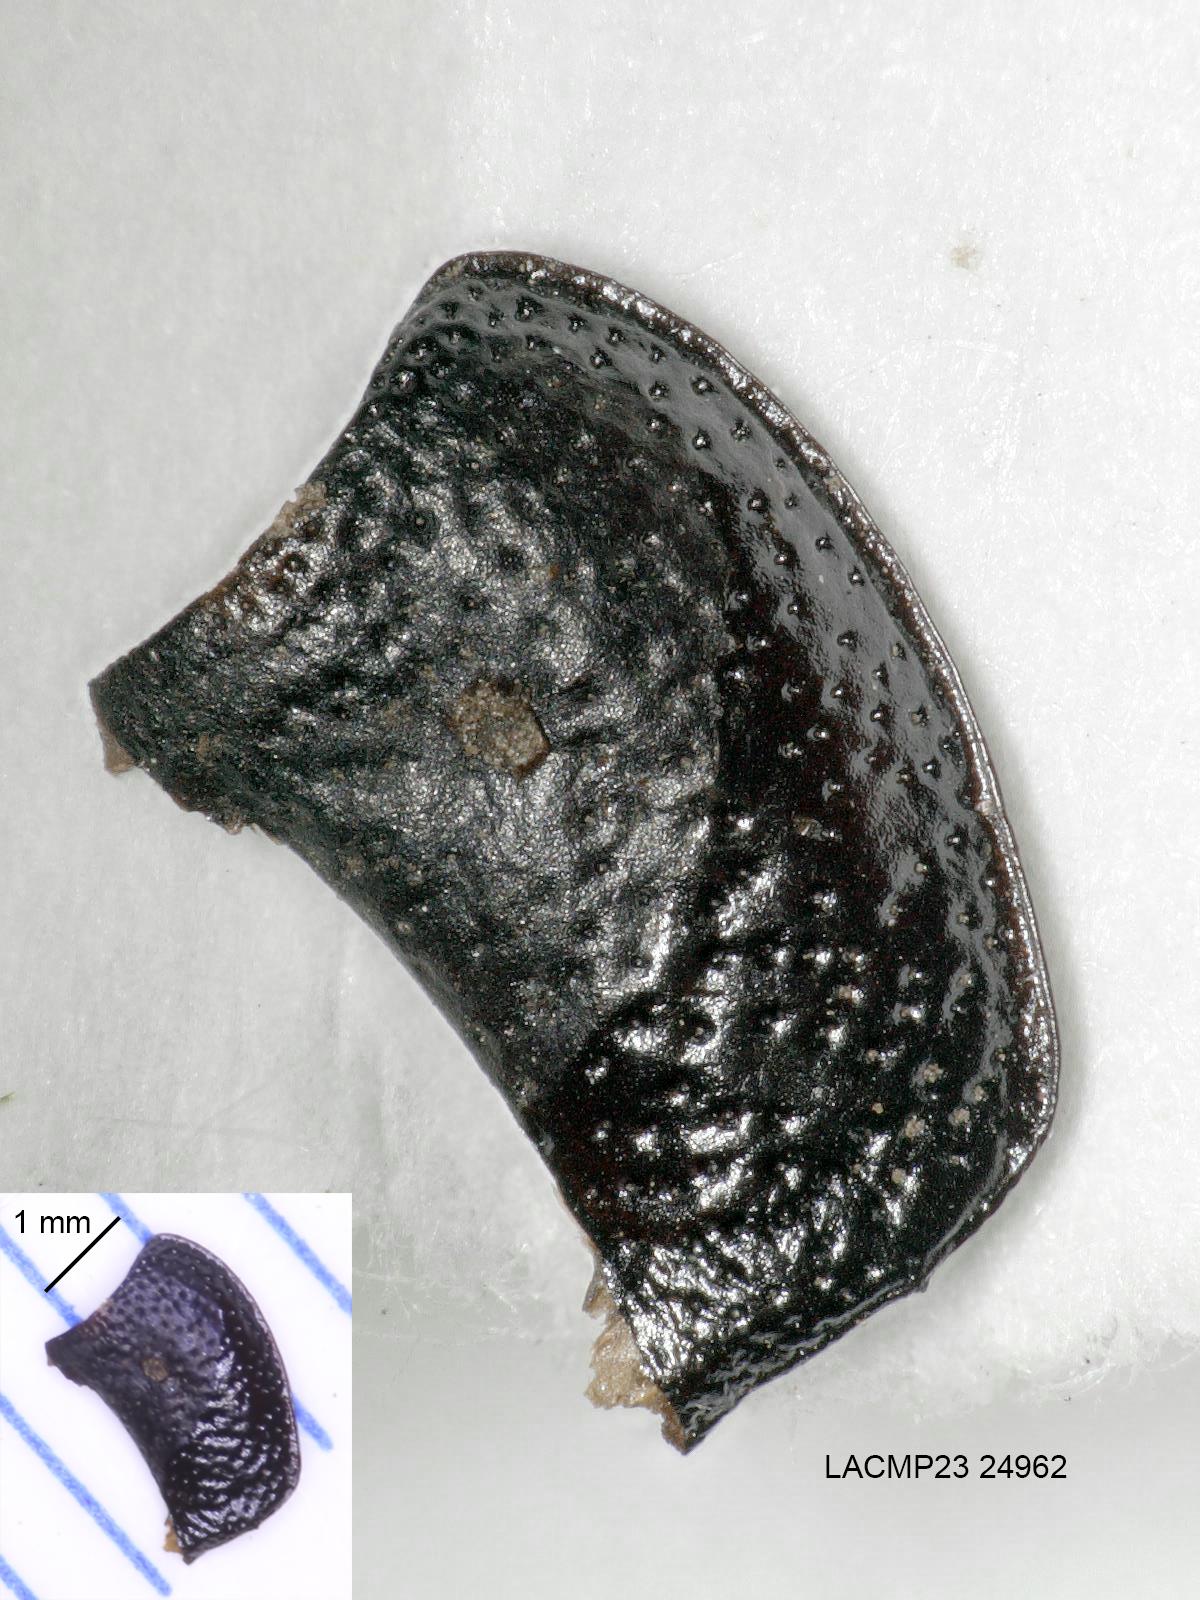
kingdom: Animalia
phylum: Arthropoda
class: Insecta
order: Coleoptera
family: Carabidae
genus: Dicheirus
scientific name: Dicheirus dilatatus
